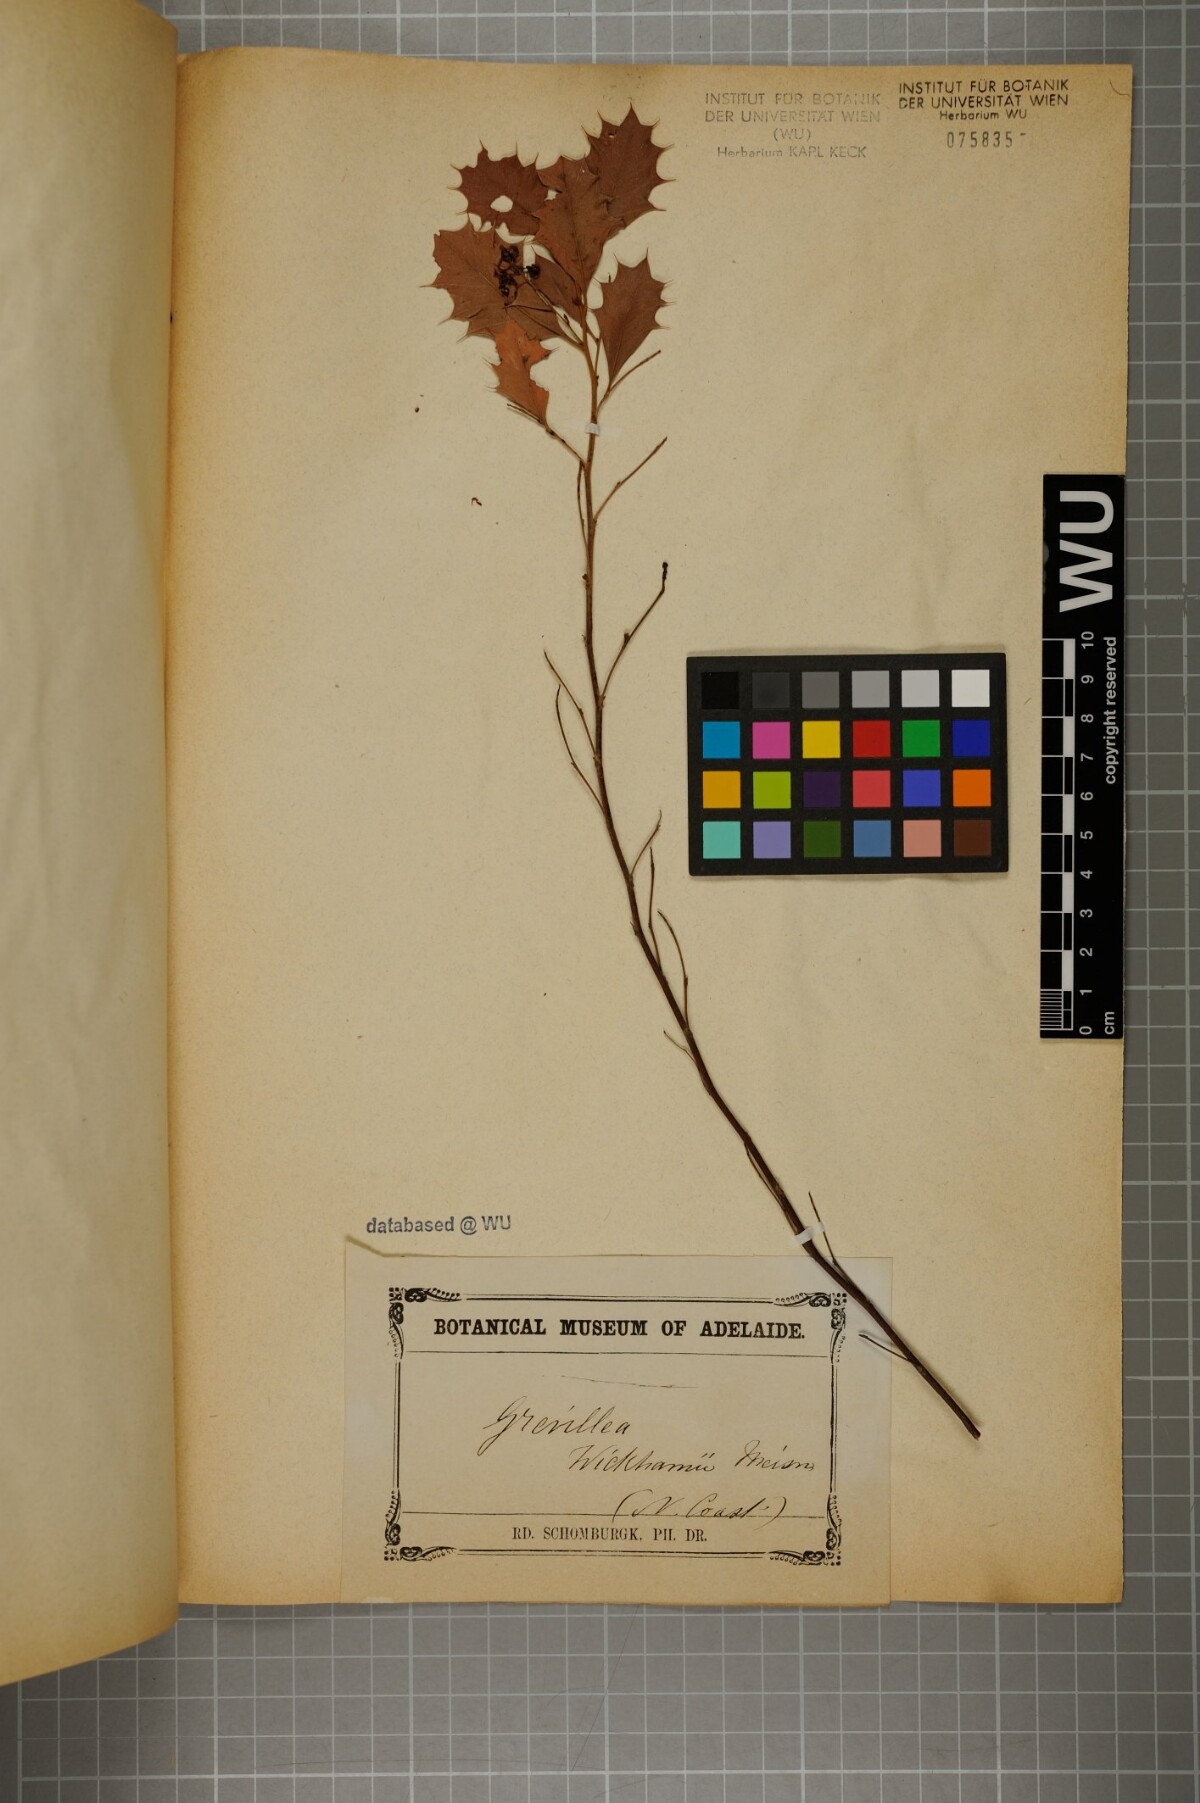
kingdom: Plantae
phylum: Tracheophyta
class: Magnoliopsida
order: Proteales
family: Proteaceae
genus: Grevillea
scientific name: Grevillea wickhamii
